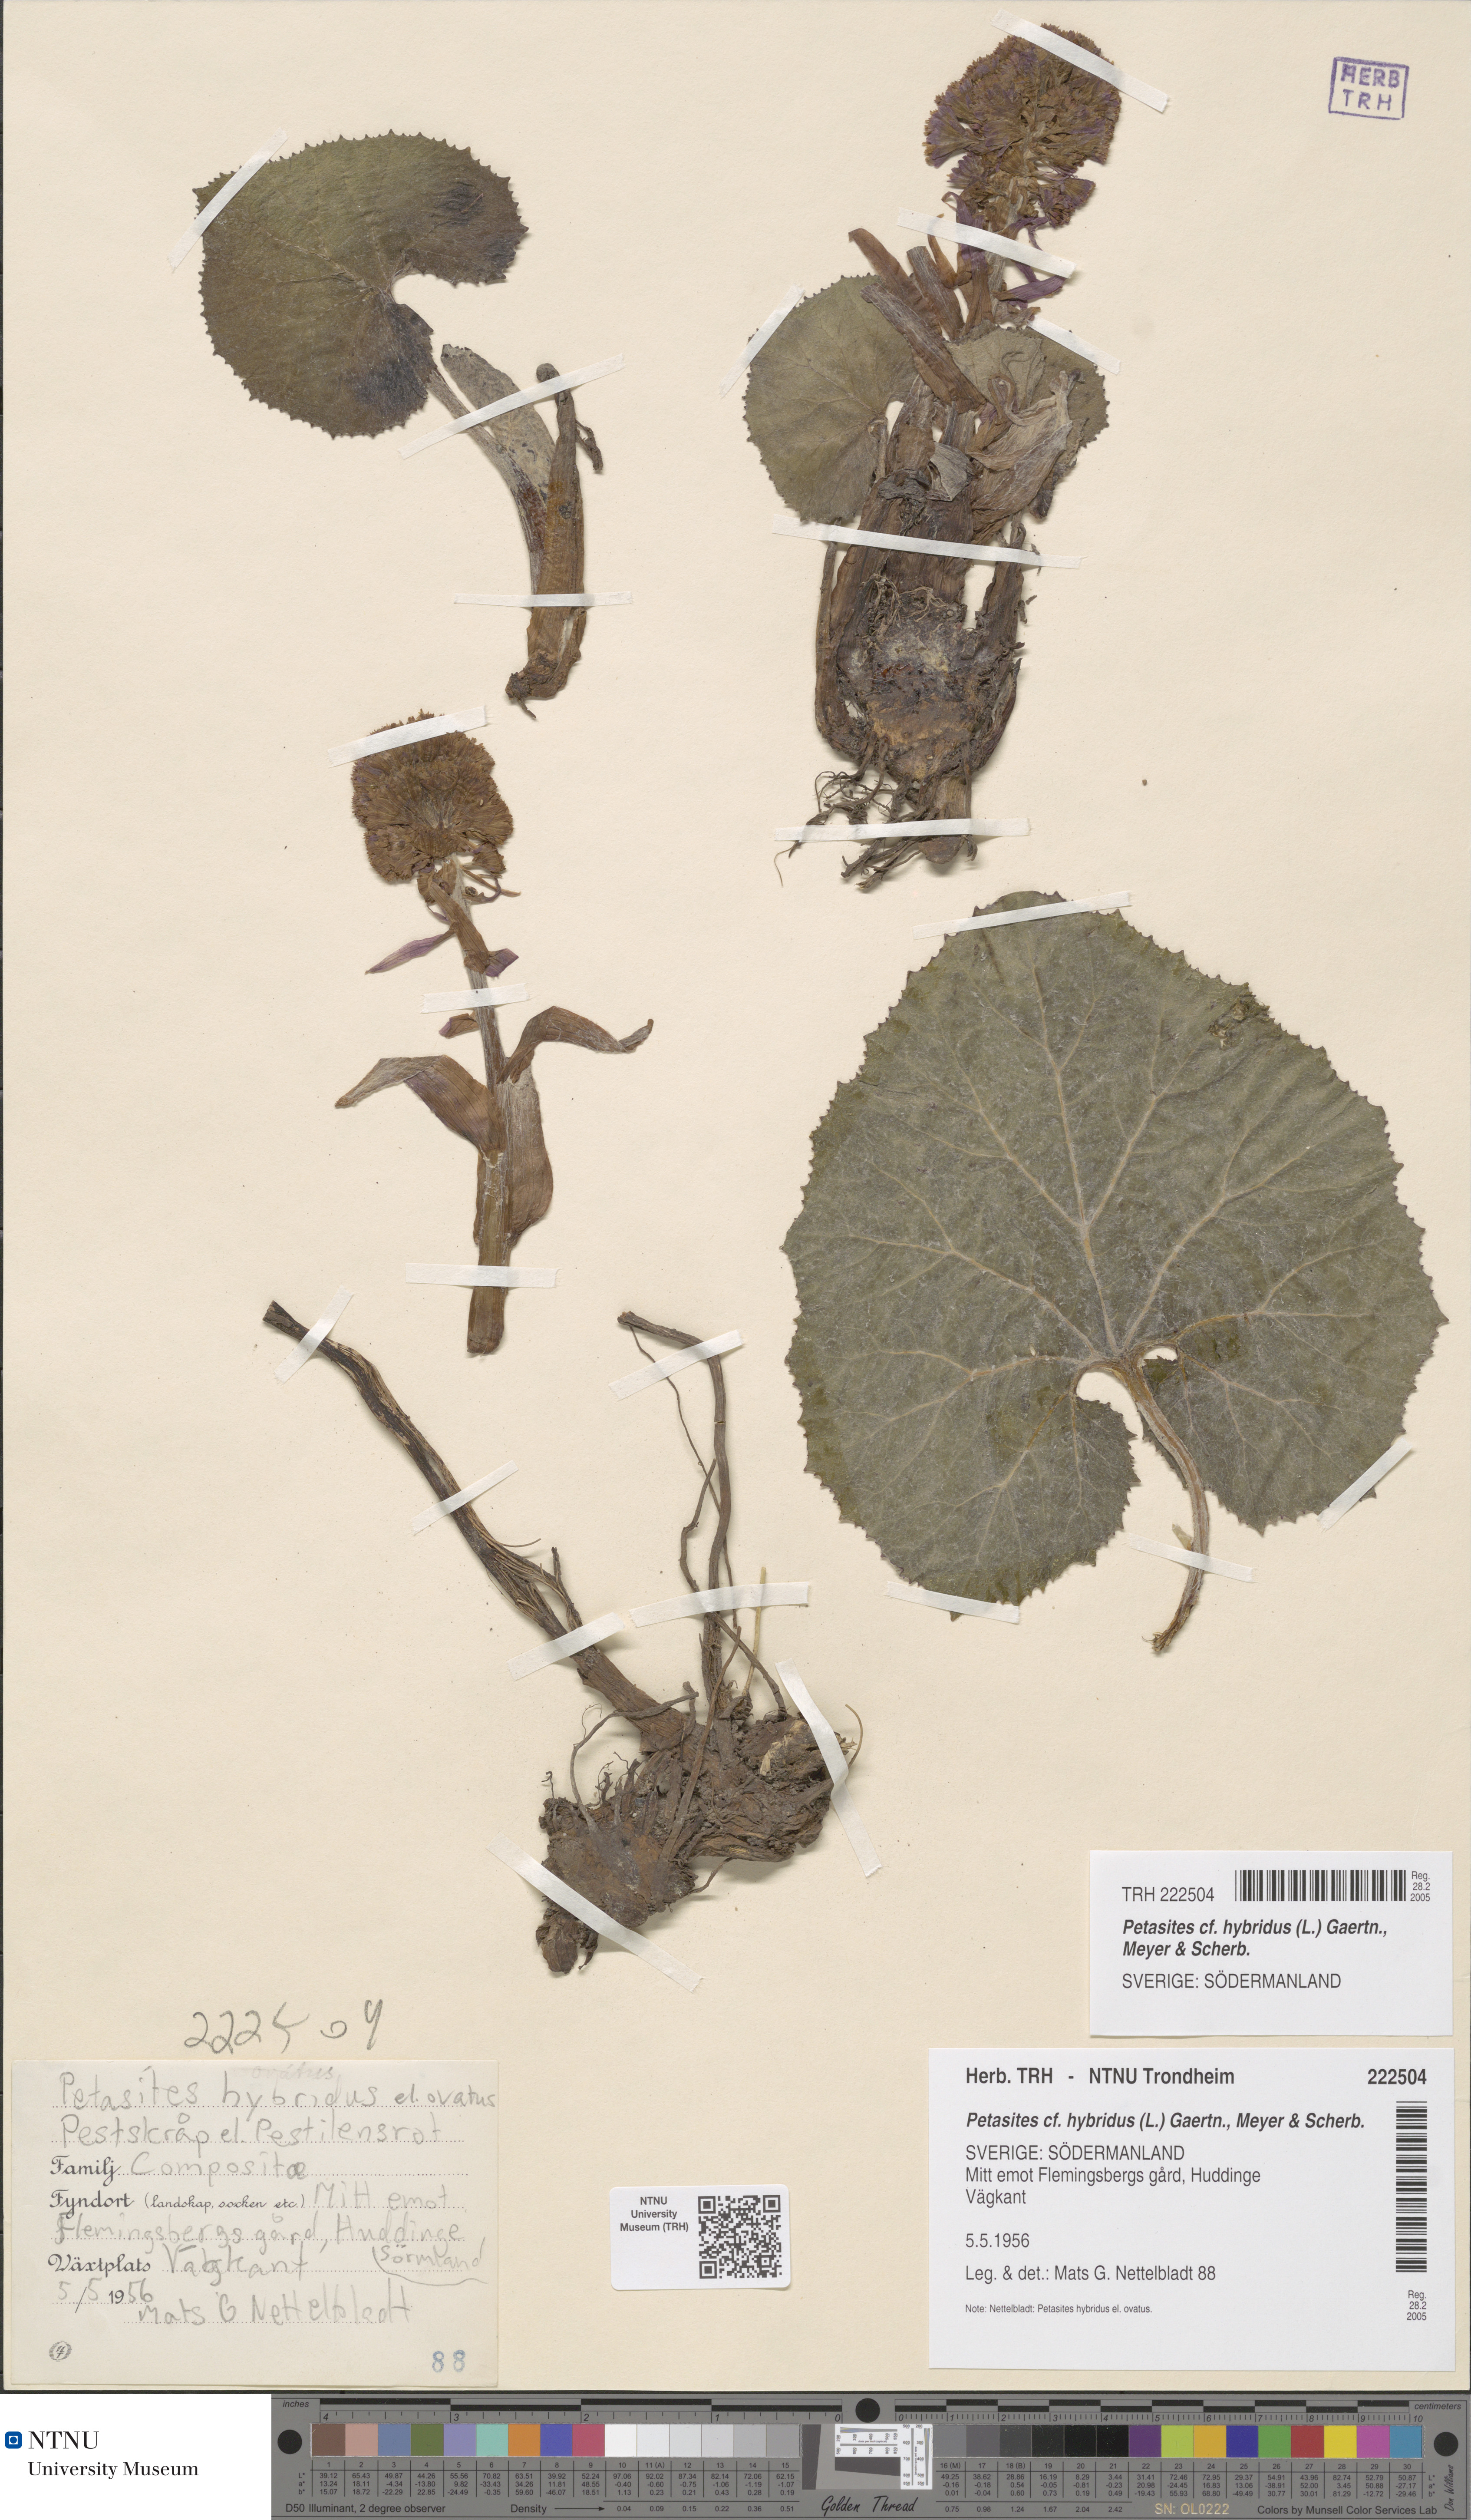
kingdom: Plantae
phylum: Tracheophyta
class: Magnoliopsida
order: Asterales
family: Asteraceae
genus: Petasites
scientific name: Petasites hybridus
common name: Butterbur
